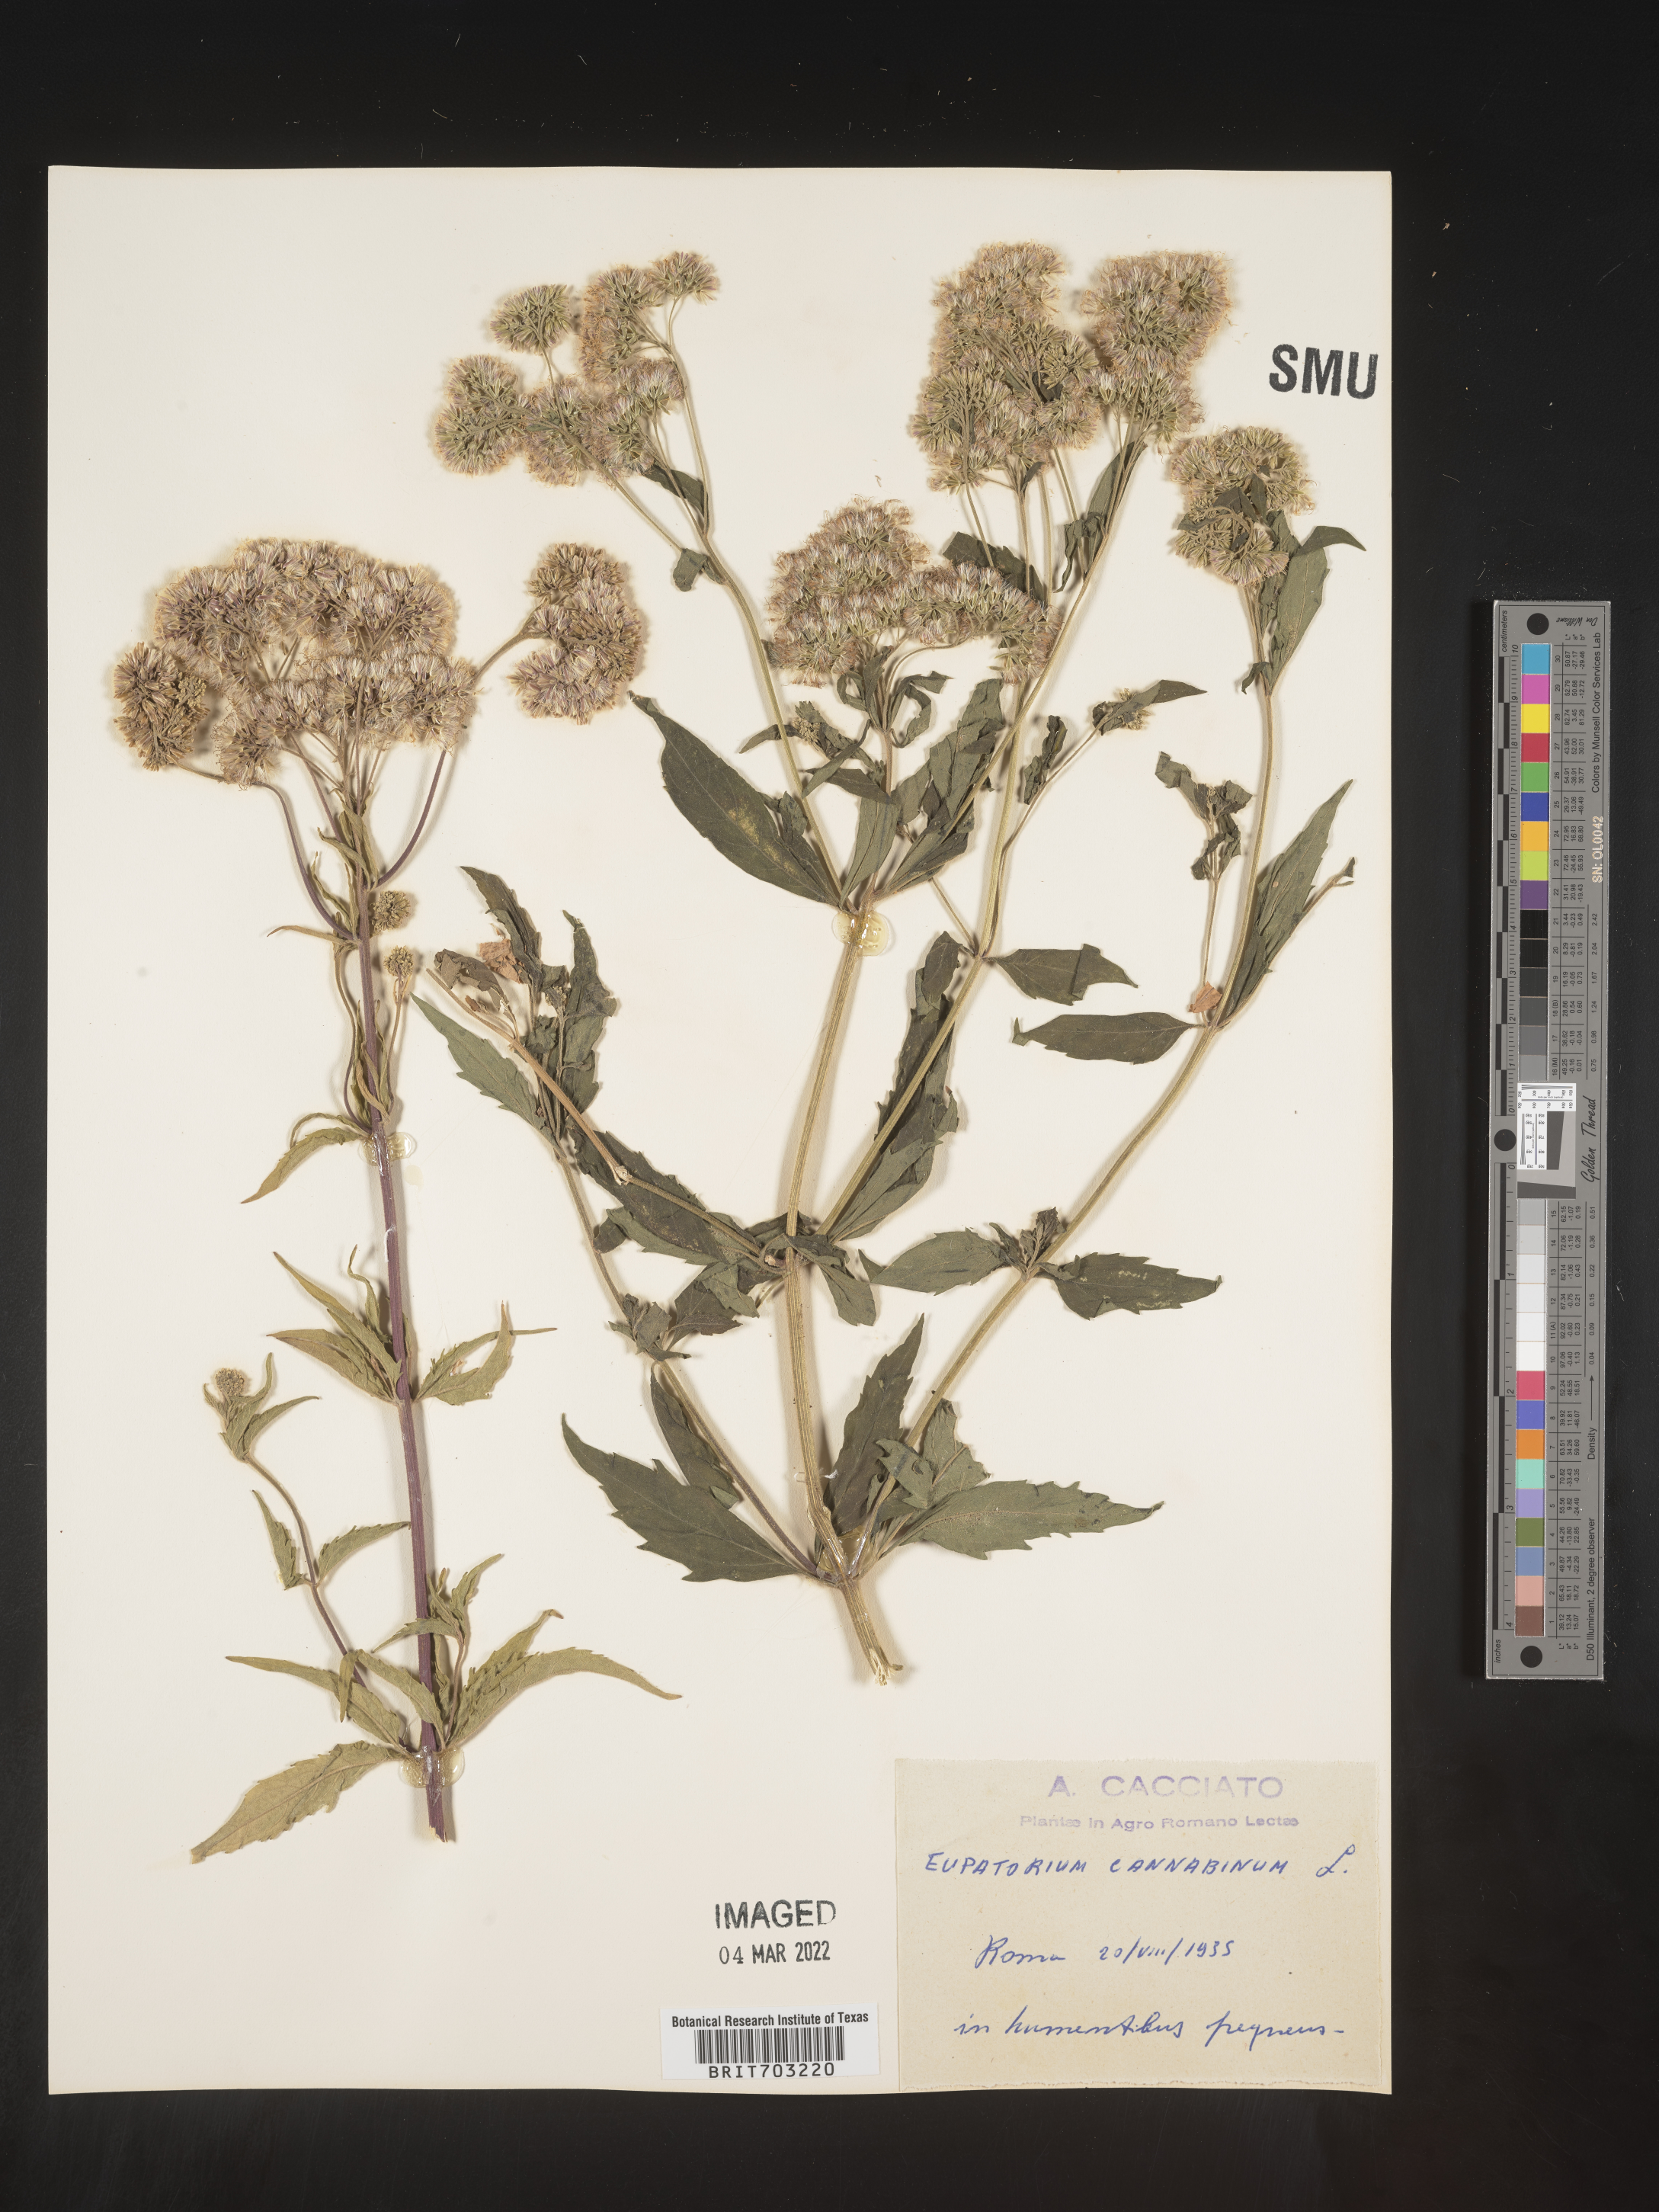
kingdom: Plantae
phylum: Tracheophyta
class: Magnoliopsida
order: Asterales
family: Asteraceae
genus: Eupatorium
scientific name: Eupatorium
